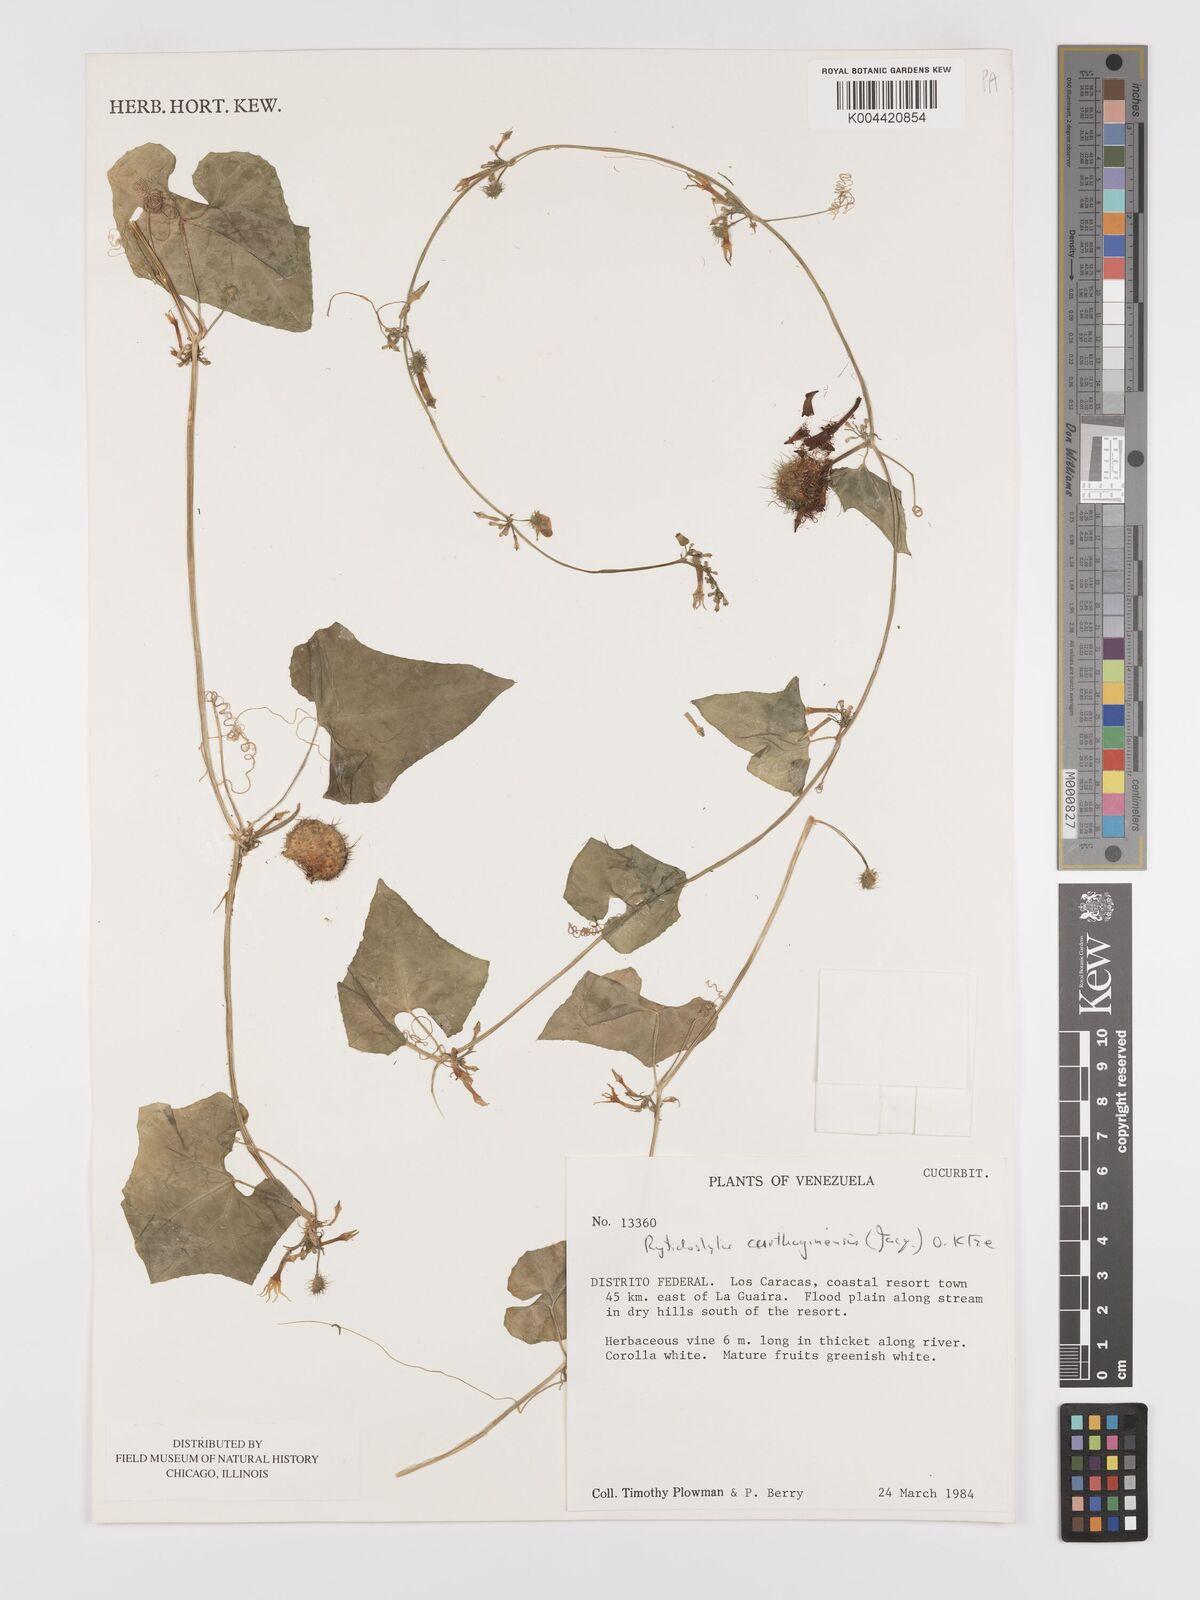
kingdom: Plantae
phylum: Tracheophyta
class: Magnoliopsida
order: Cucurbitales
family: Cucurbitaceae
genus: Cyclanthera
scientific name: Cyclanthera carthagenensis
